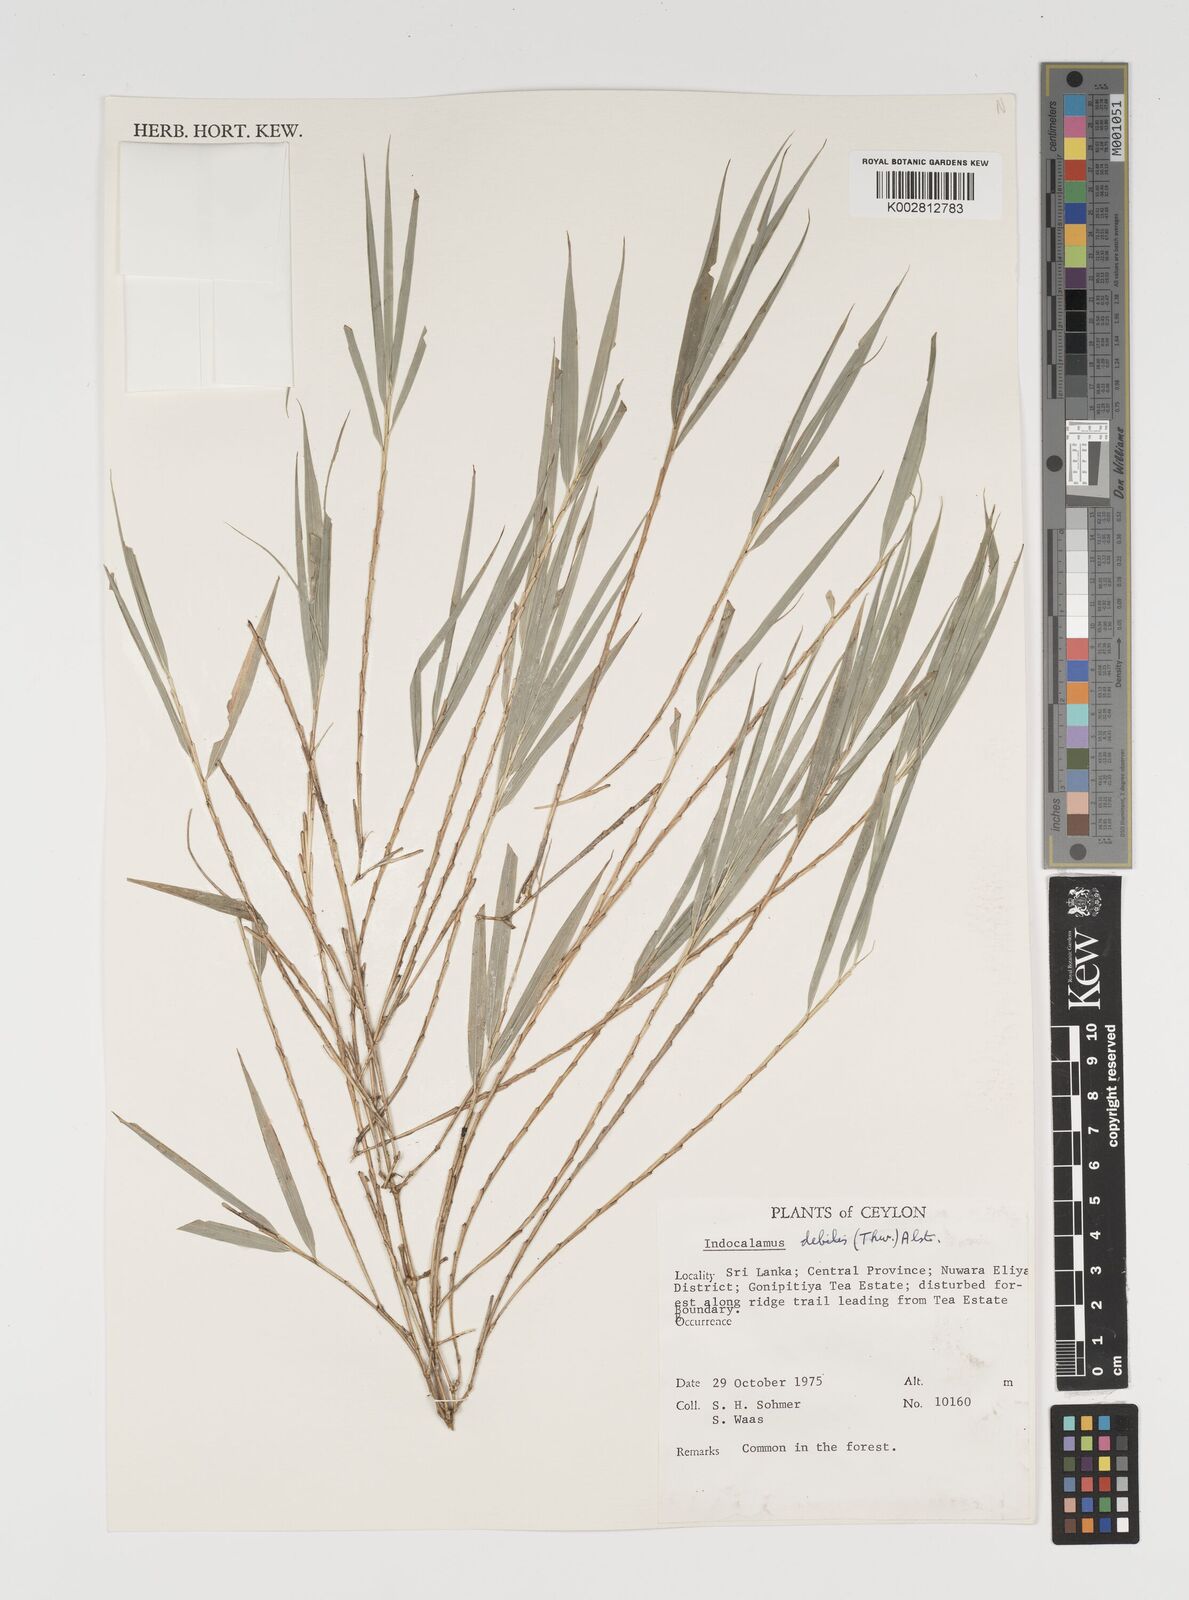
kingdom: Plantae
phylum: Tracheophyta
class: Liliopsida
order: Poales
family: Poaceae
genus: Kuruna
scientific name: Kuruna debilis
